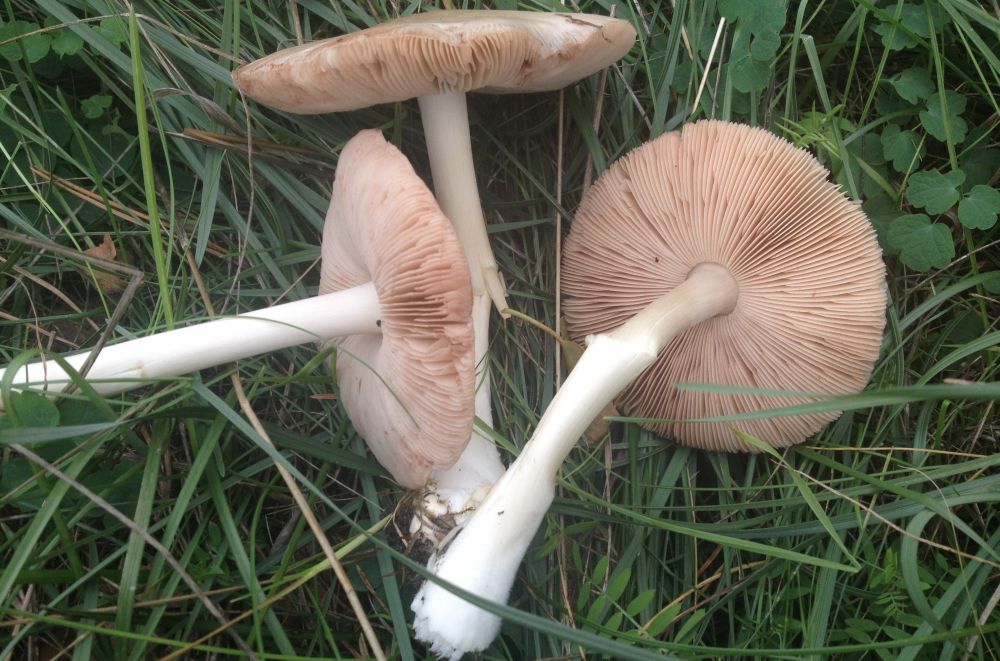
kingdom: Fungi
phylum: Basidiomycota
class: Agaricomycetes
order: Agaricales
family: Pluteaceae
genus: Volvopluteus
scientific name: Volvopluteus gloiocephalus
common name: høj posesvamp
